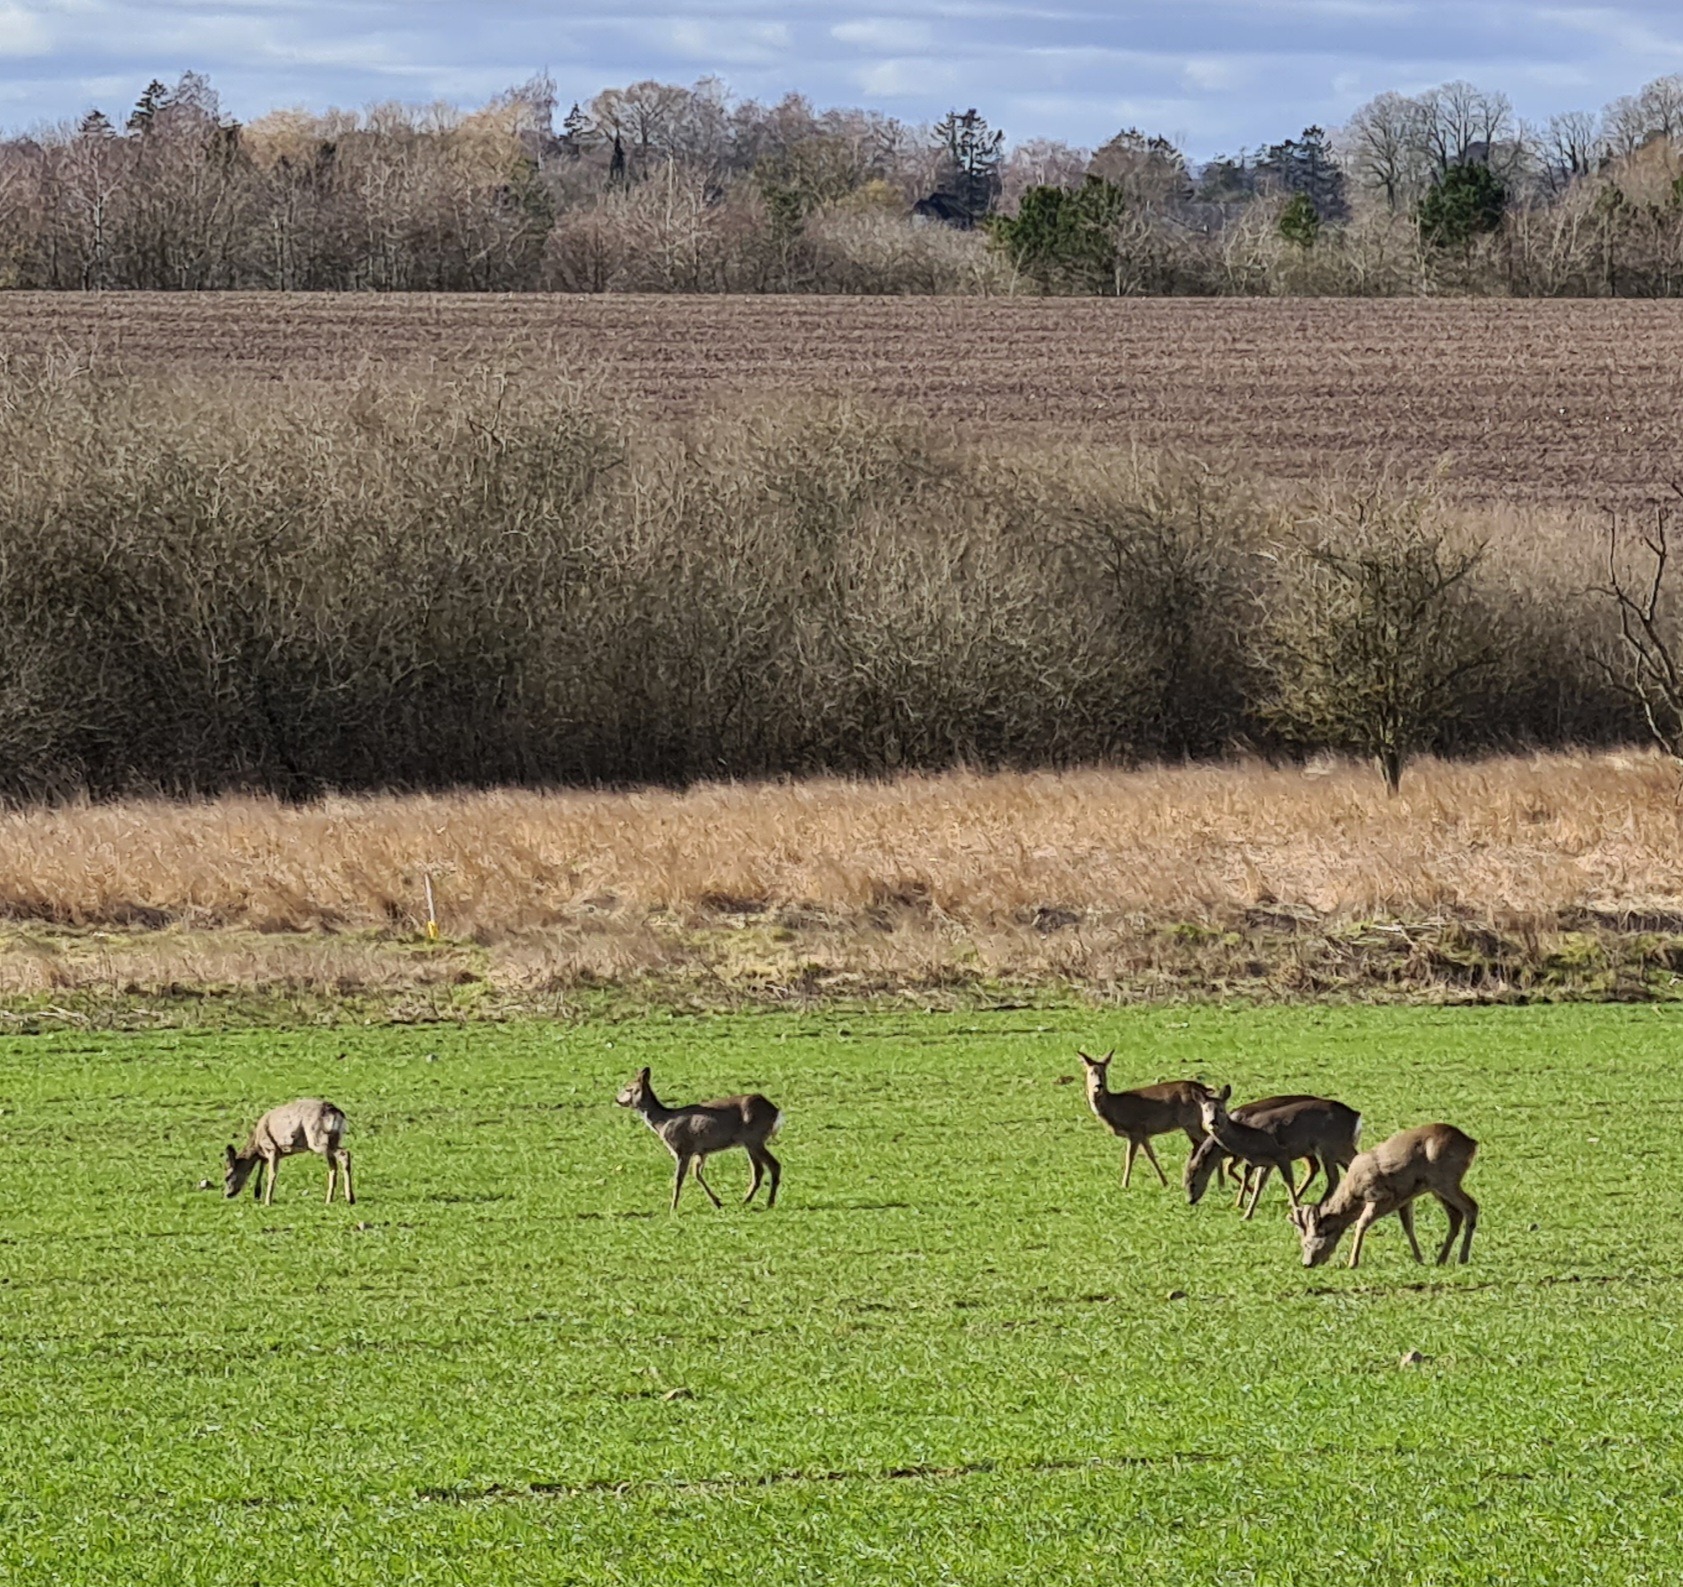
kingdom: Animalia
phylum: Chordata
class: Mammalia
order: Artiodactyla
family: Cervidae
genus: Capreolus
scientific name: Capreolus capreolus
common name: Rådyr
